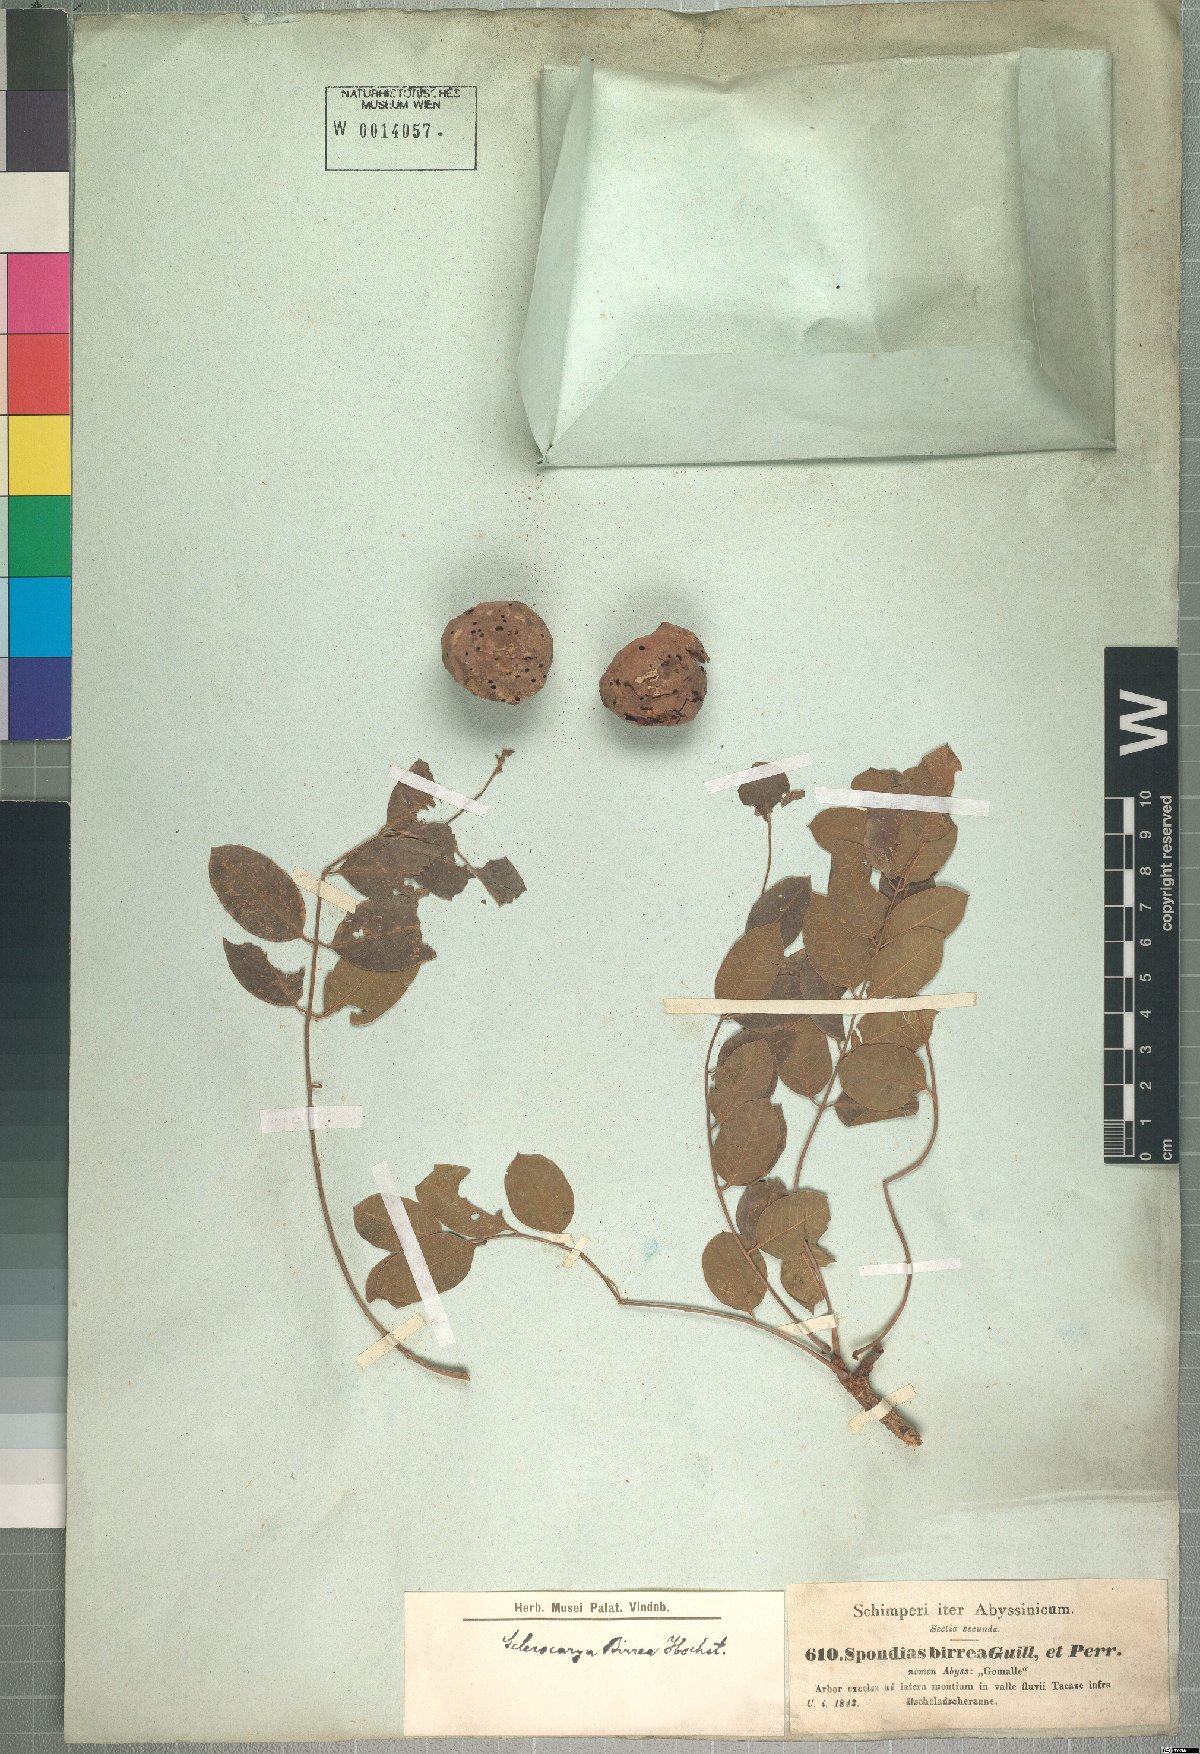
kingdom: Plantae
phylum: Tracheophyta
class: Magnoliopsida
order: Sapindales
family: Anacardiaceae
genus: Sclerocarya
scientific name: Sclerocarya birrea
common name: Marula
